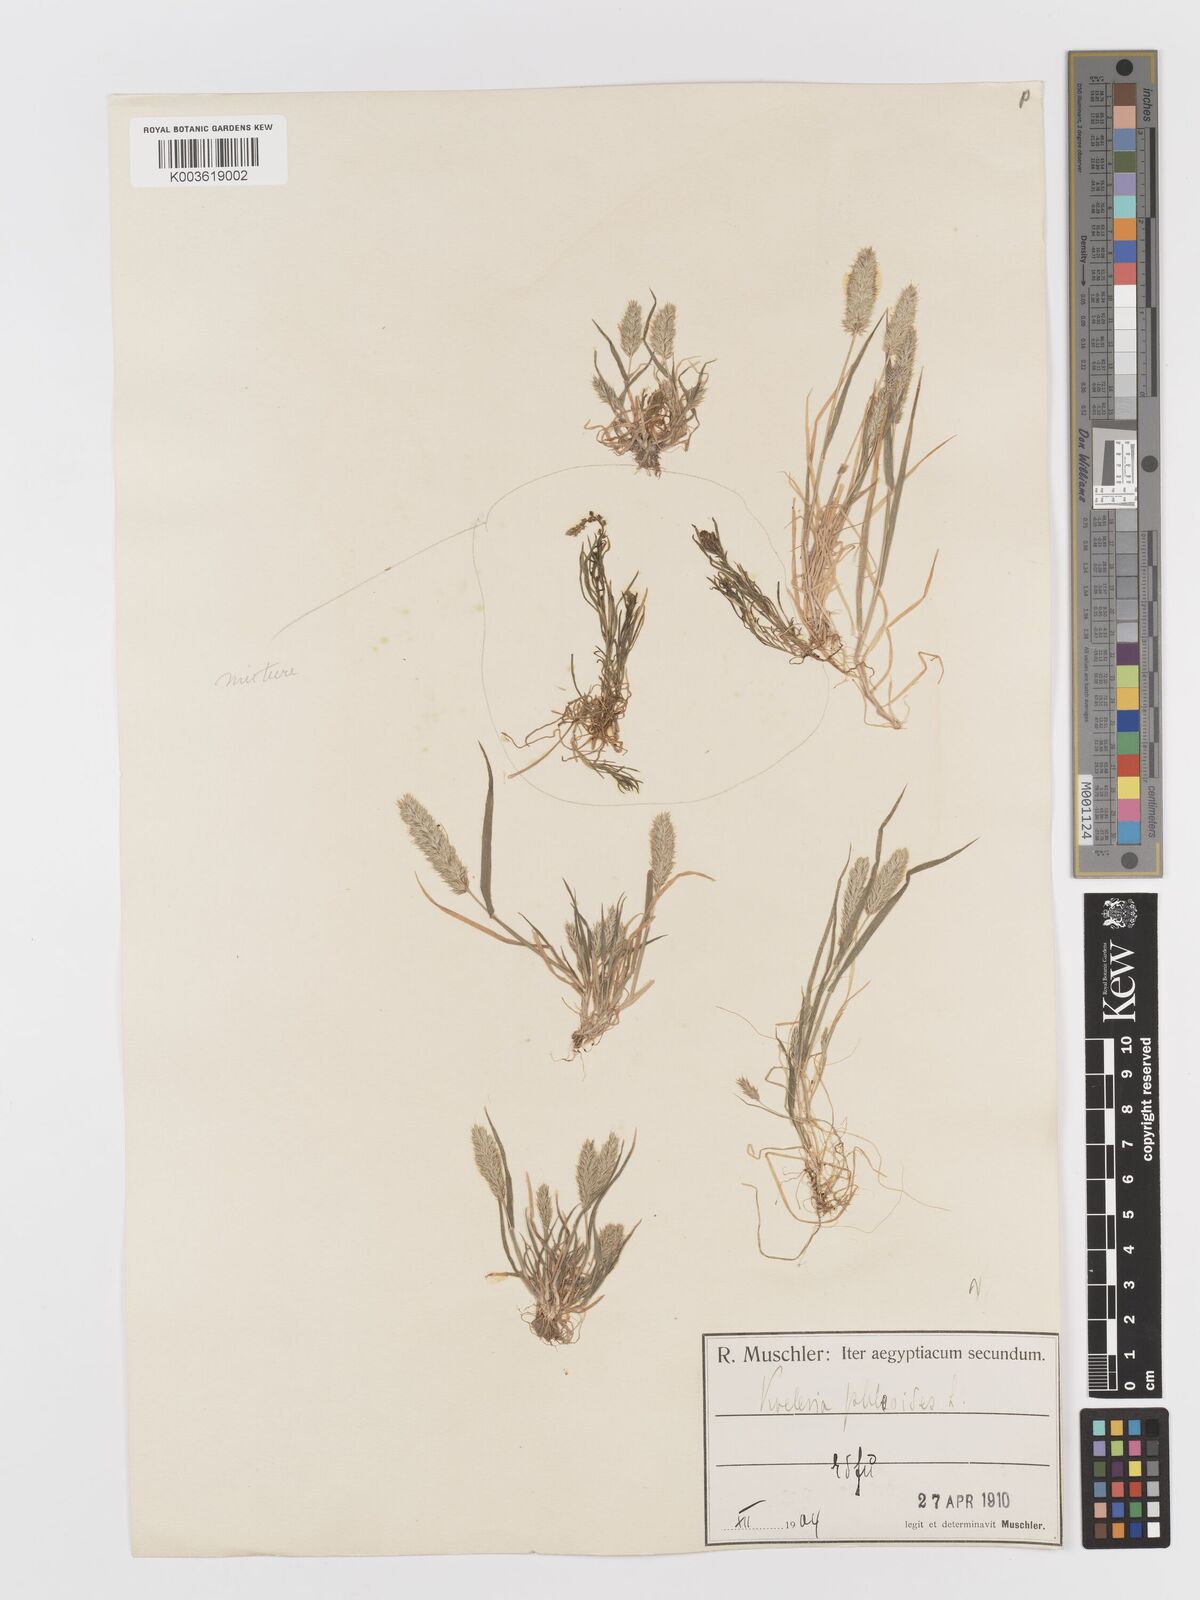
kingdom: Plantae
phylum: Tracheophyta
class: Liliopsida
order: Poales
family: Poaceae
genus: Rostraria
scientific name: Rostraria cristata
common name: Mediterranean hair-grass
